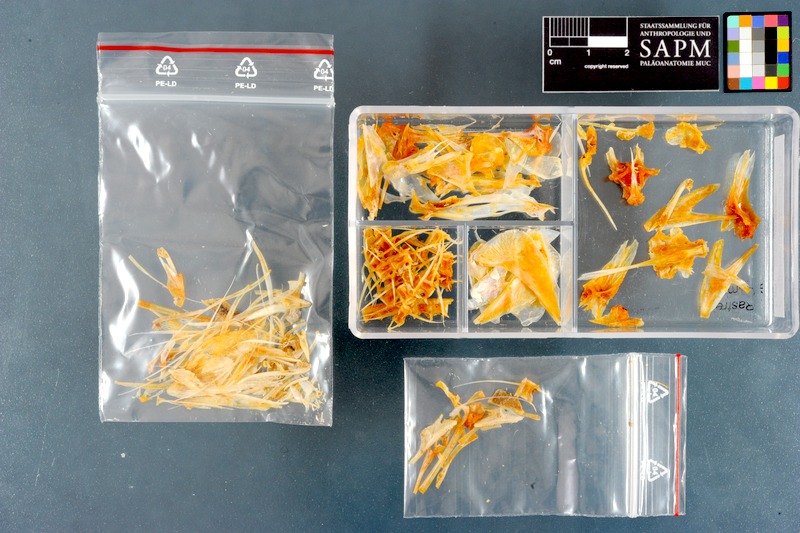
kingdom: Animalia
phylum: Chordata
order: Perciformes
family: Scombridae
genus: Rastrelliger
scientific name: Rastrelliger kanagurta
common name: Indian mackerel
